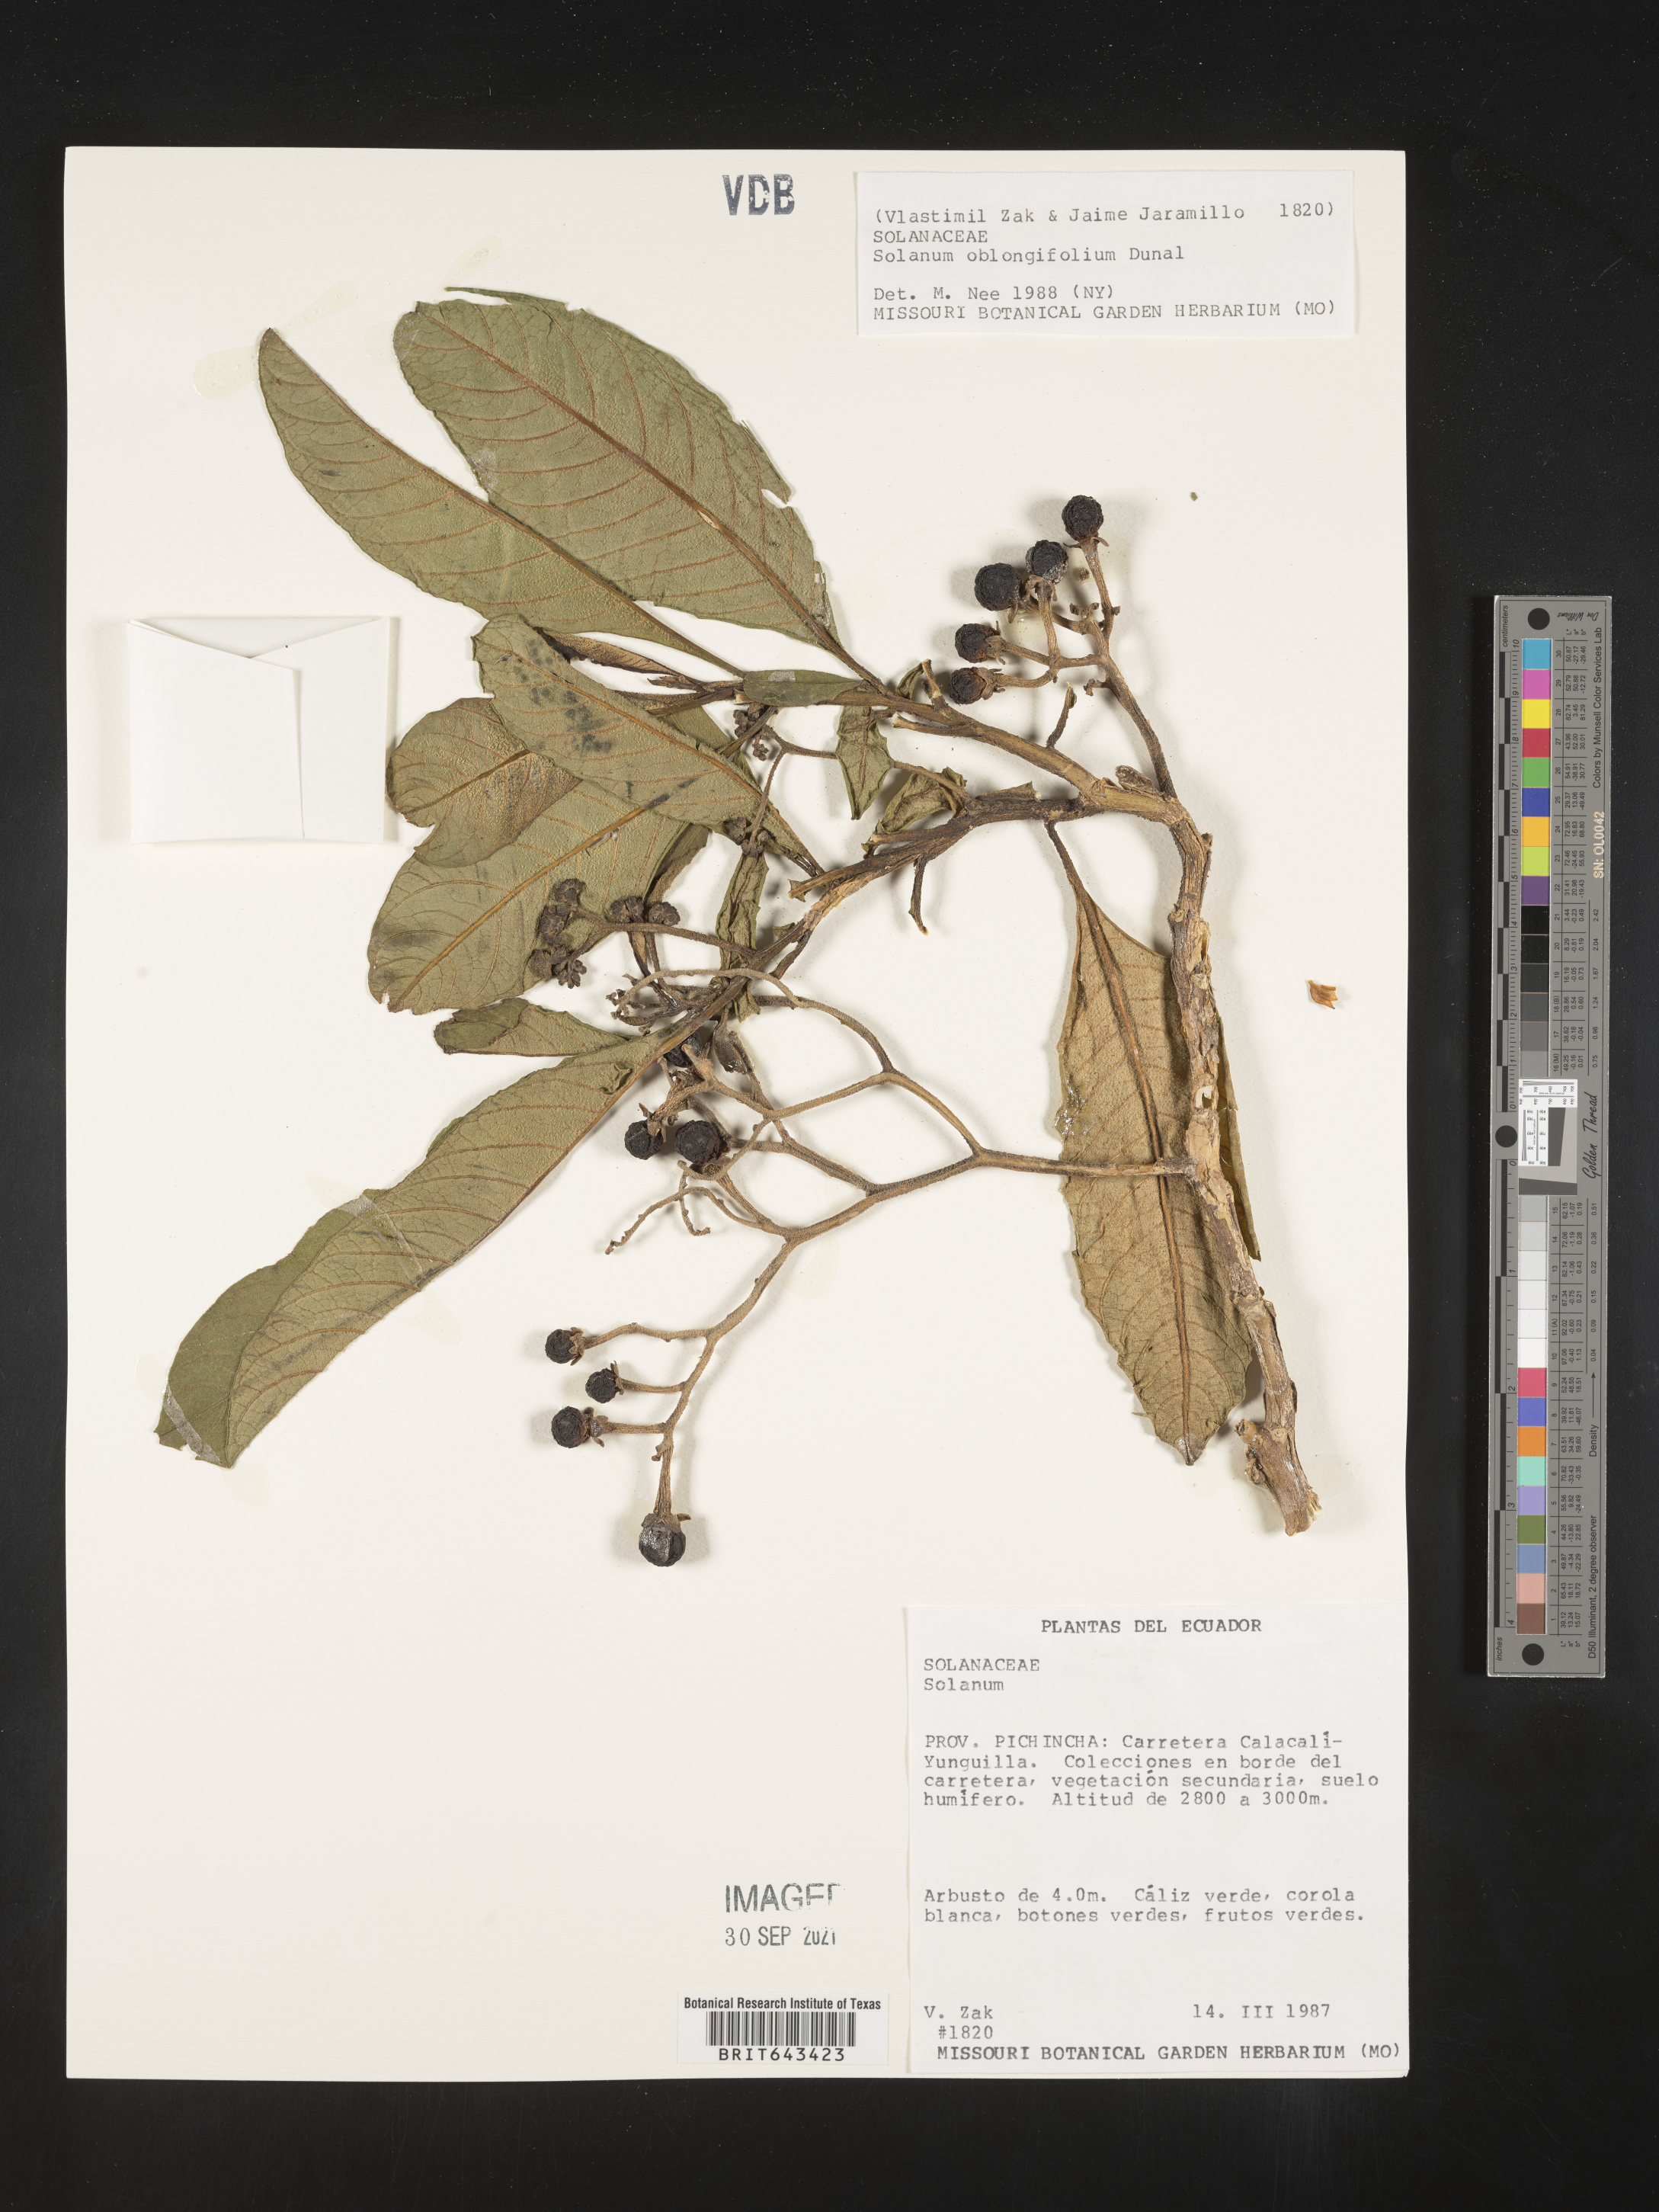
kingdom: Plantae
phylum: Tracheophyta
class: Magnoliopsida
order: Solanales
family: Solanaceae
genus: Solanum
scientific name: Solanum
